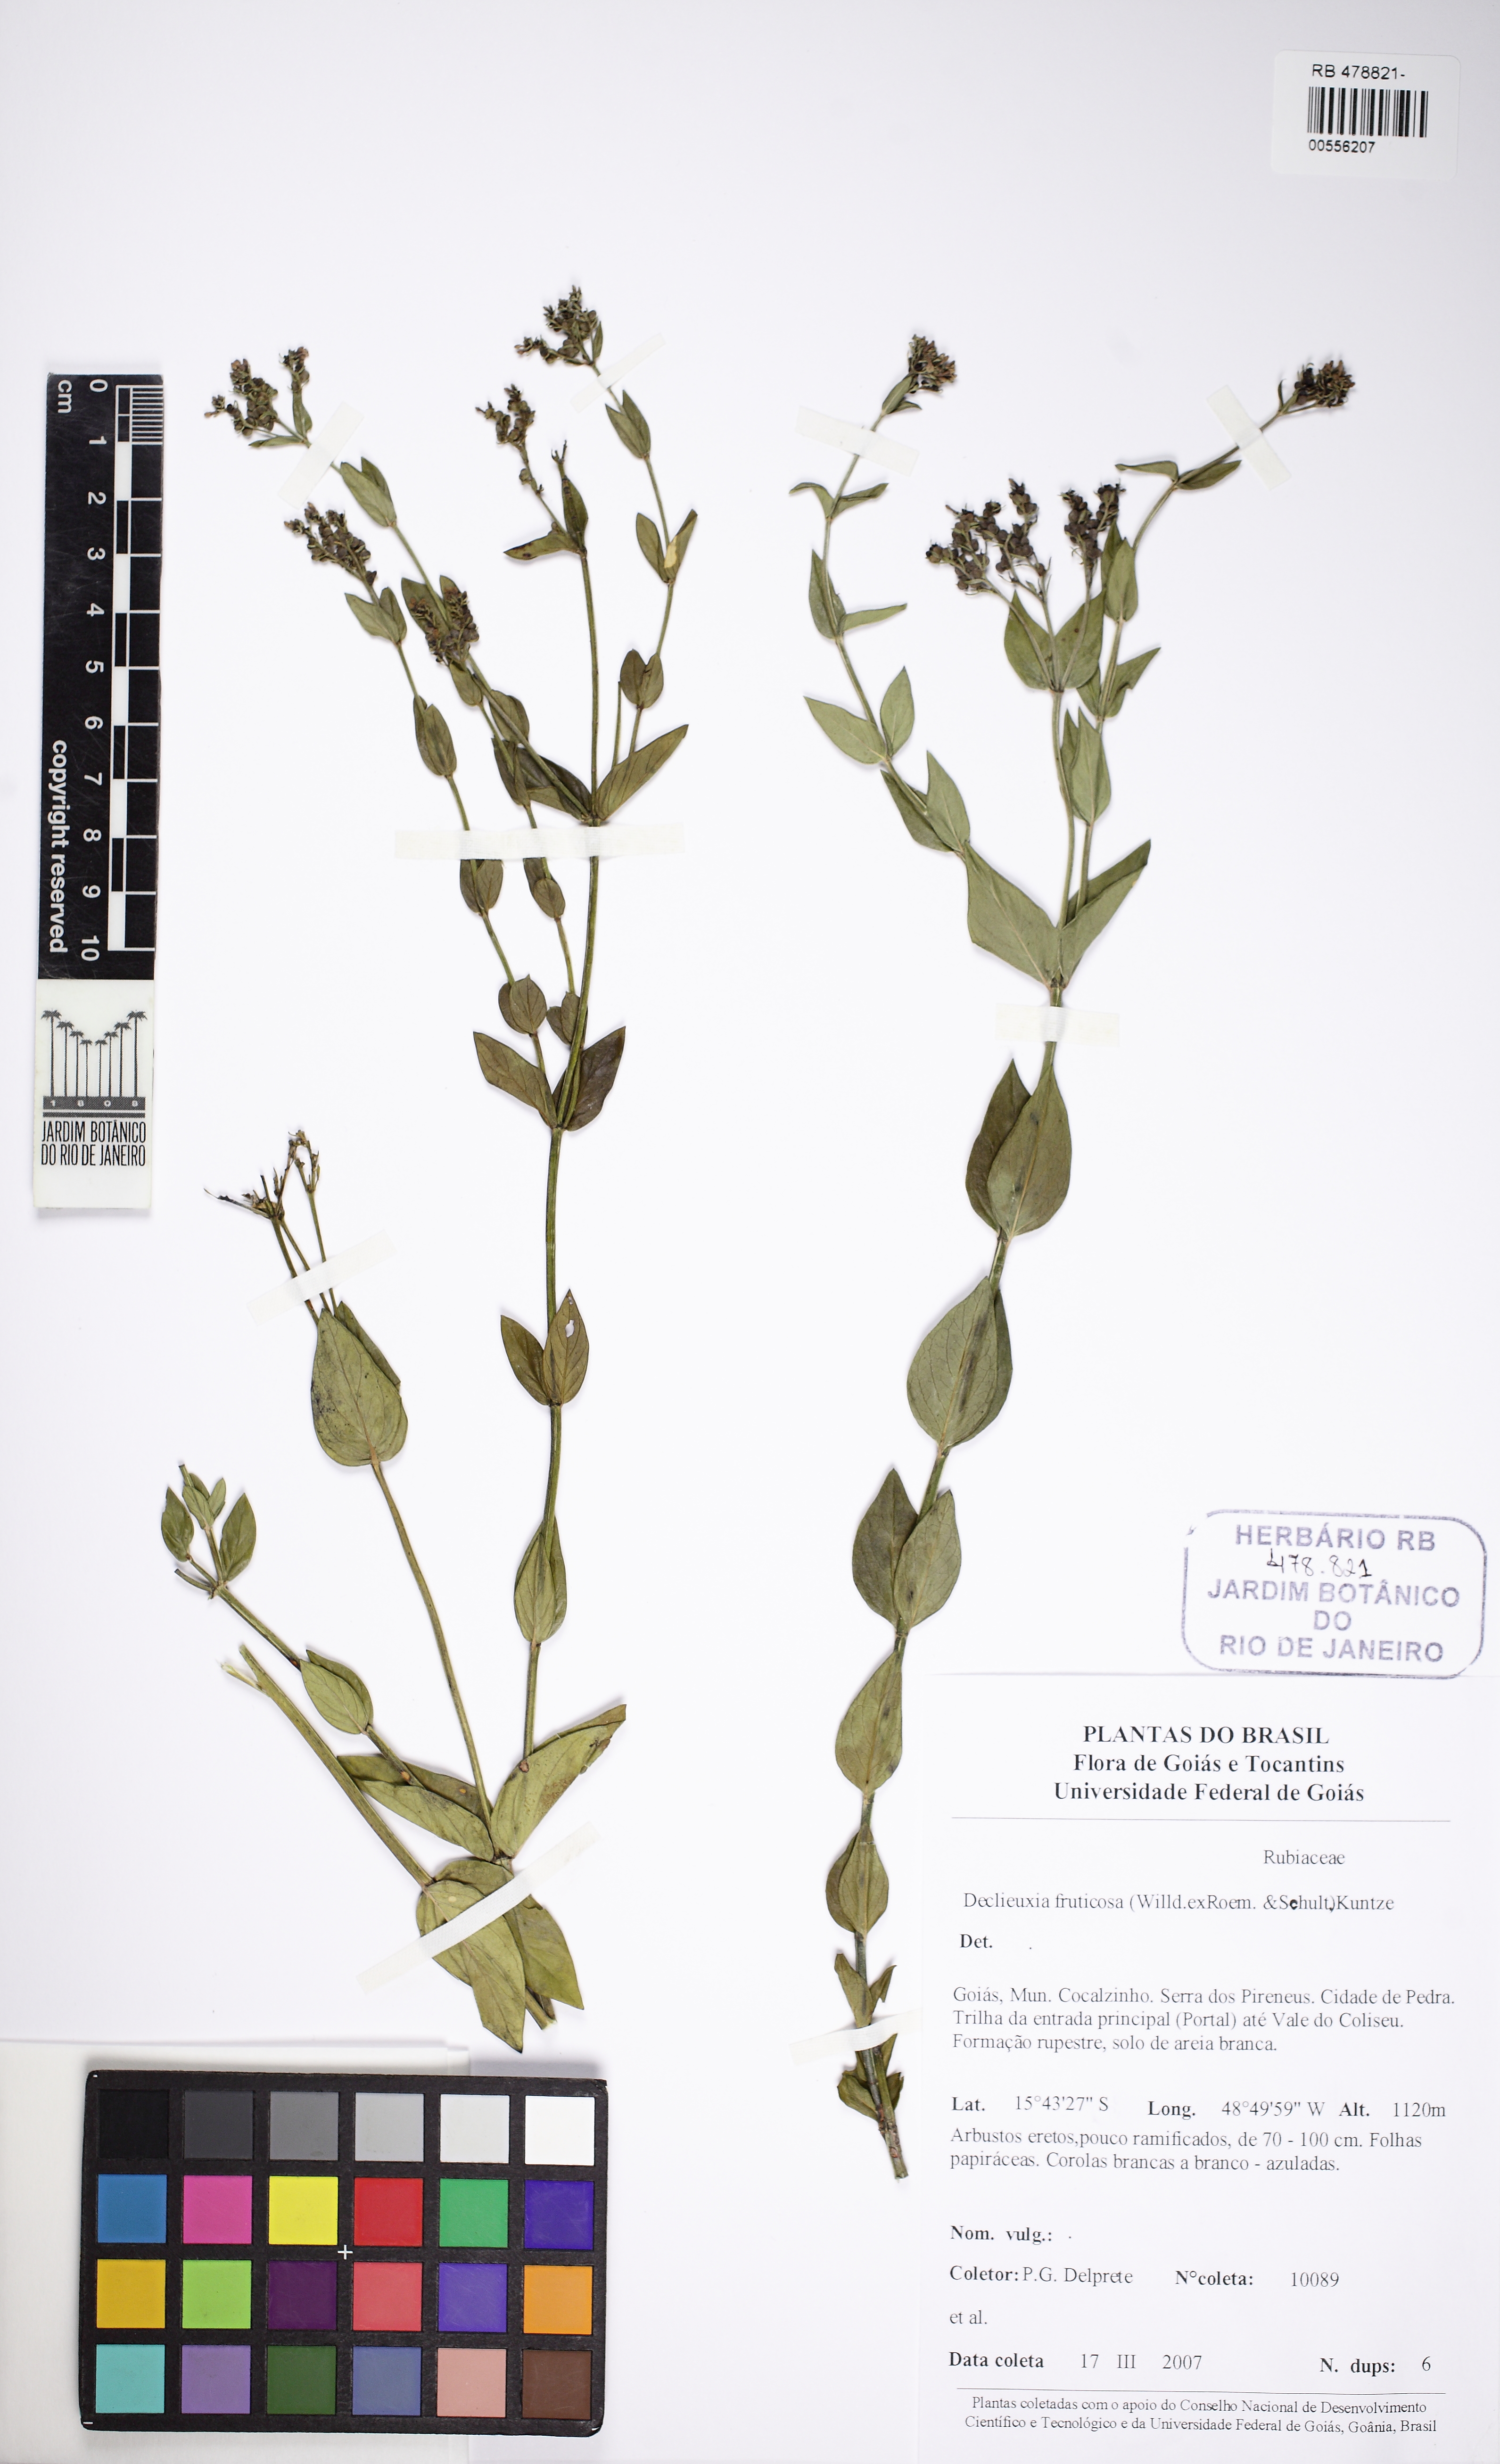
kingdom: Plantae
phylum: Tracheophyta
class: Magnoliopsida
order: Gentianales
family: Rubiaceae
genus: Declieuxia
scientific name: Declieuxia fruticosa
